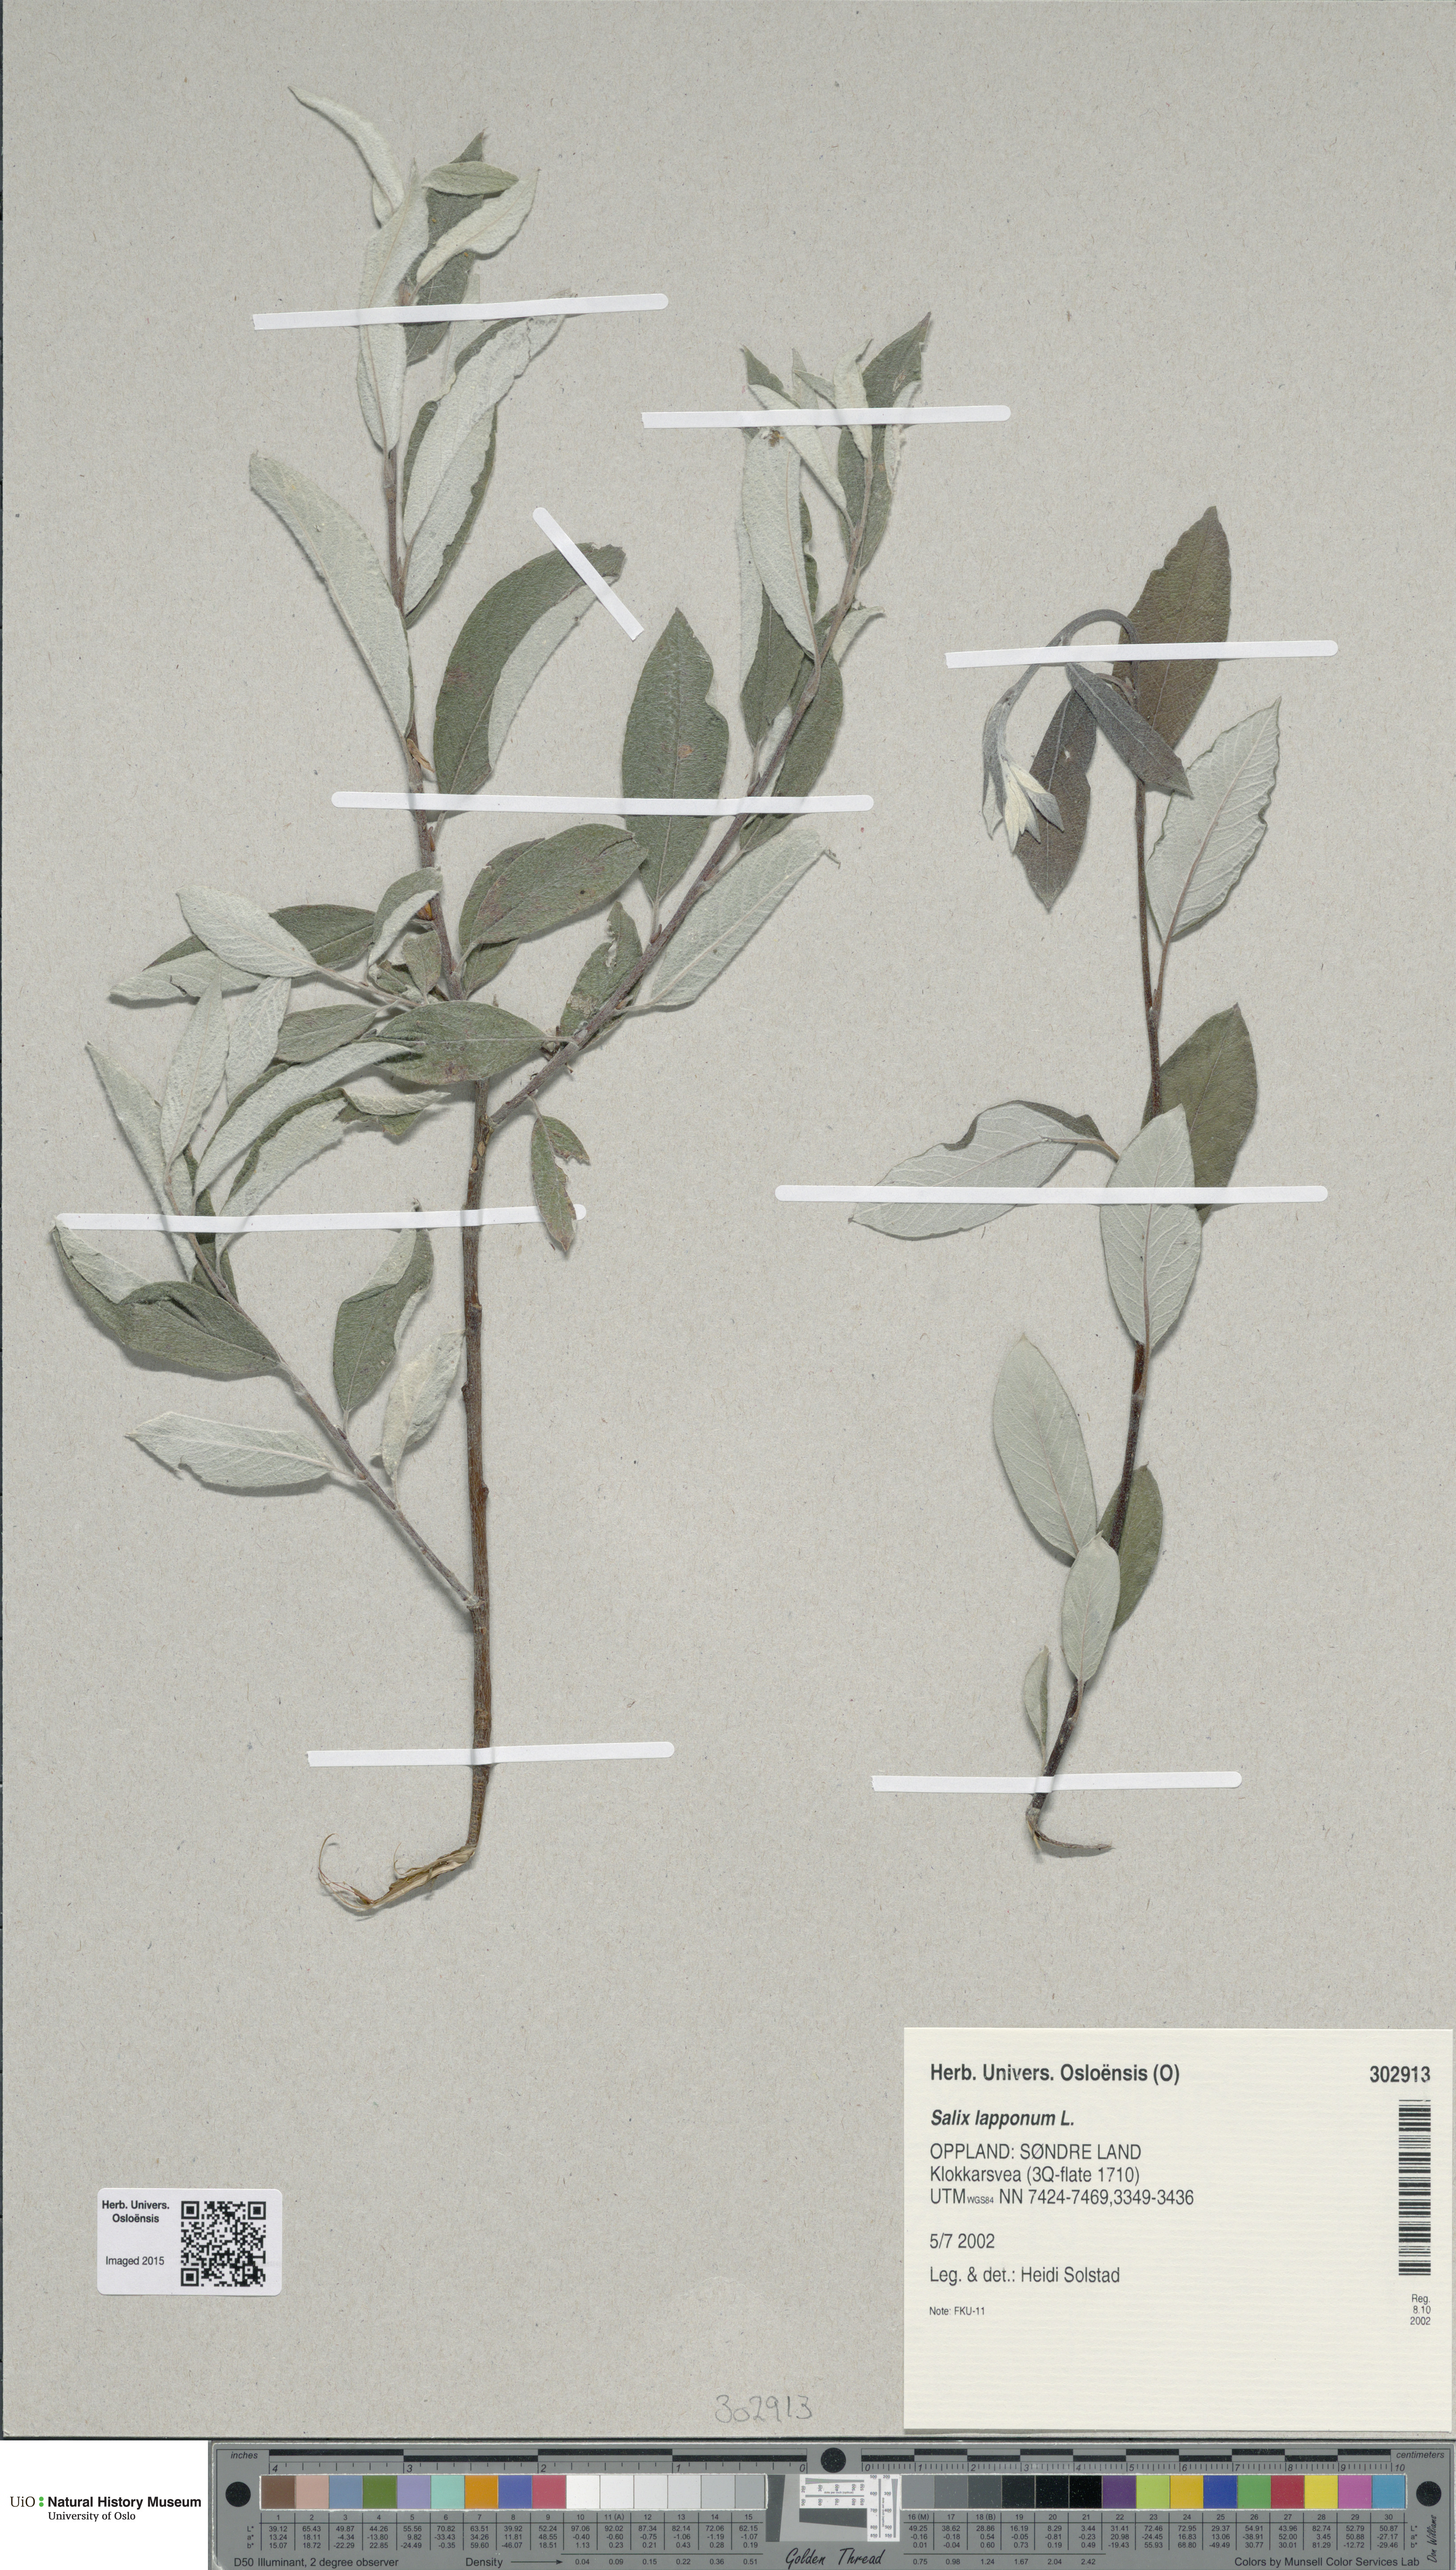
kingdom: Plantae
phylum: Tracheophyta
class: Magnoliopsida
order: Malpighiales
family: Salicaceae
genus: Salix
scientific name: Salix lapponum
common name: Downy willow
